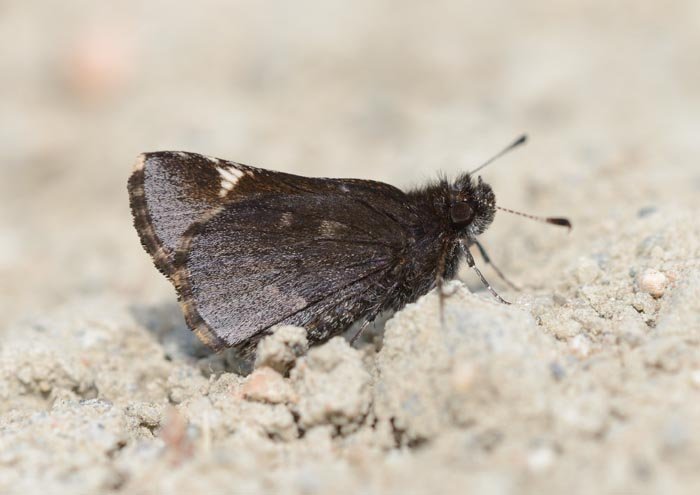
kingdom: Animalia
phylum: Arthropoda
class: Insecta
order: Lepidoptera
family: Hesperiidae
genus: Mastor
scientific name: Mastor vialis
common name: Common Roadside-Skipper
